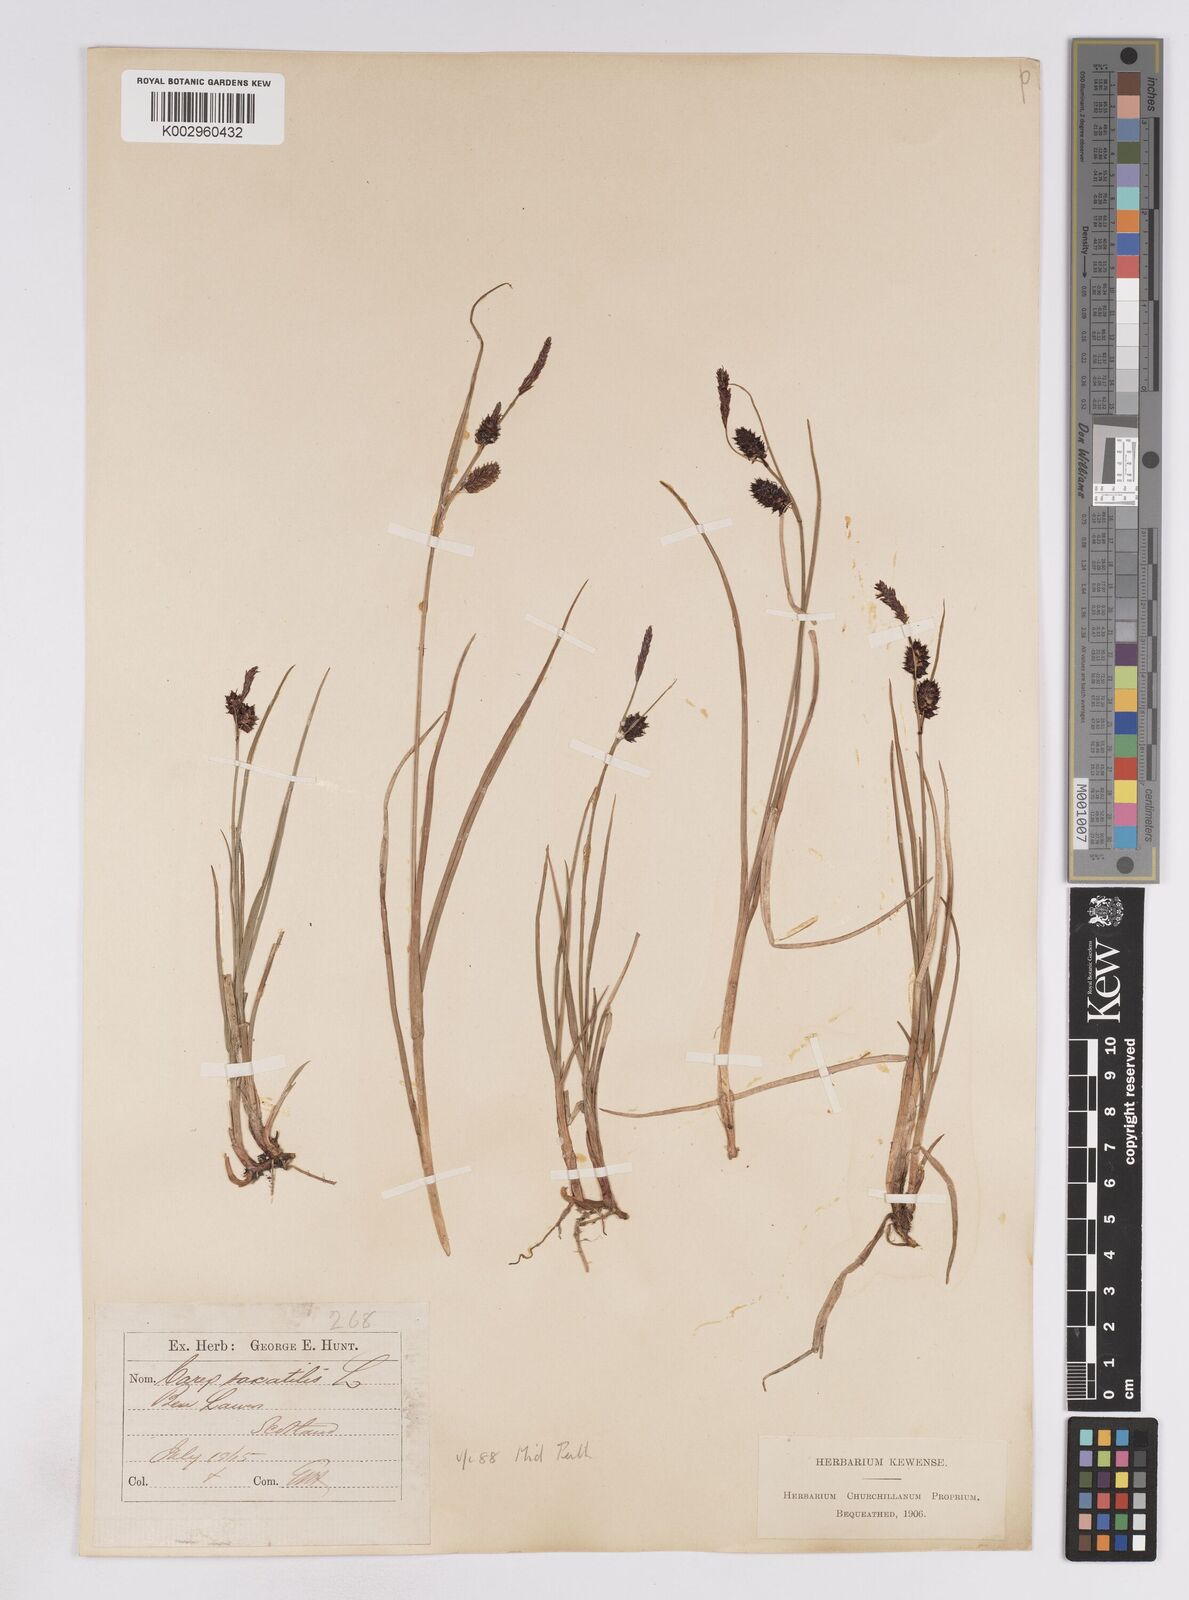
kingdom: Plantae
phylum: Tracheophyta
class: Liliopsida
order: Poales
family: Cyperaceae
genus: Carex
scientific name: Carex saxatilis
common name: Russet sedge
